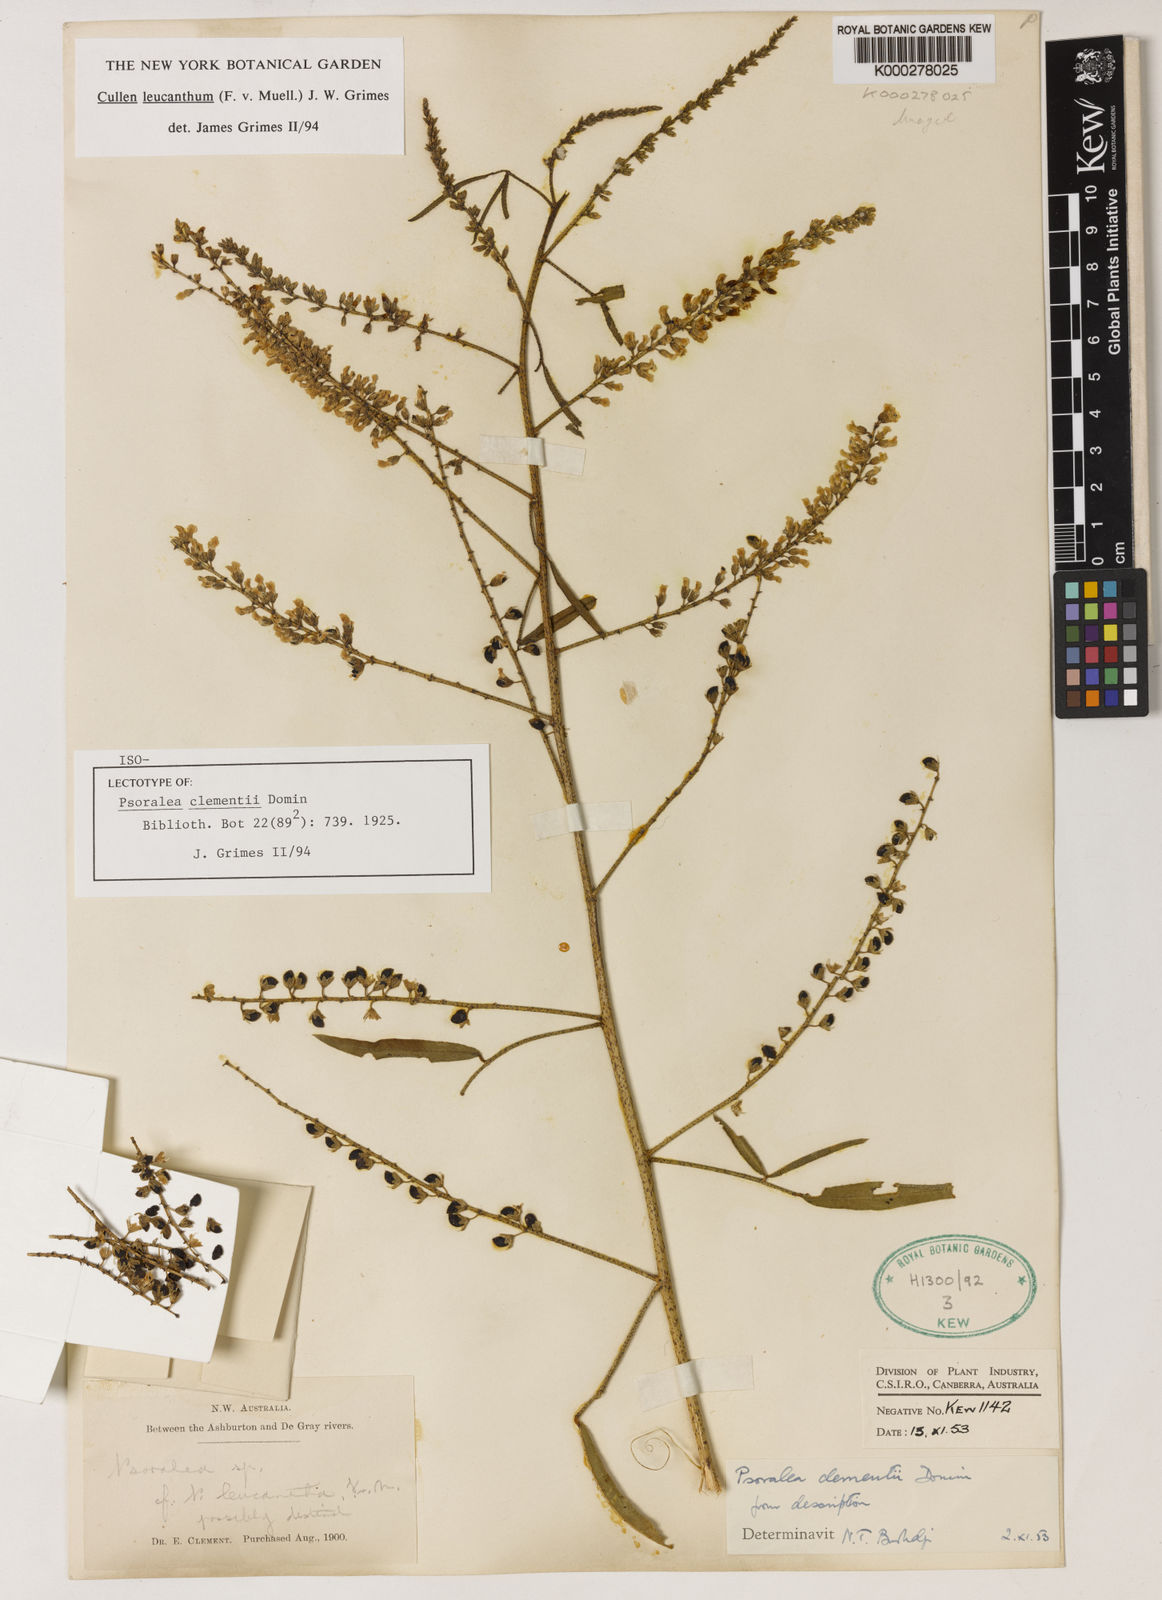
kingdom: Plantae
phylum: Tracheophyta
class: Magnoliopsida
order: Fabales
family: Fabaceae
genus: Cullen
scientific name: Cullen leucanthum
